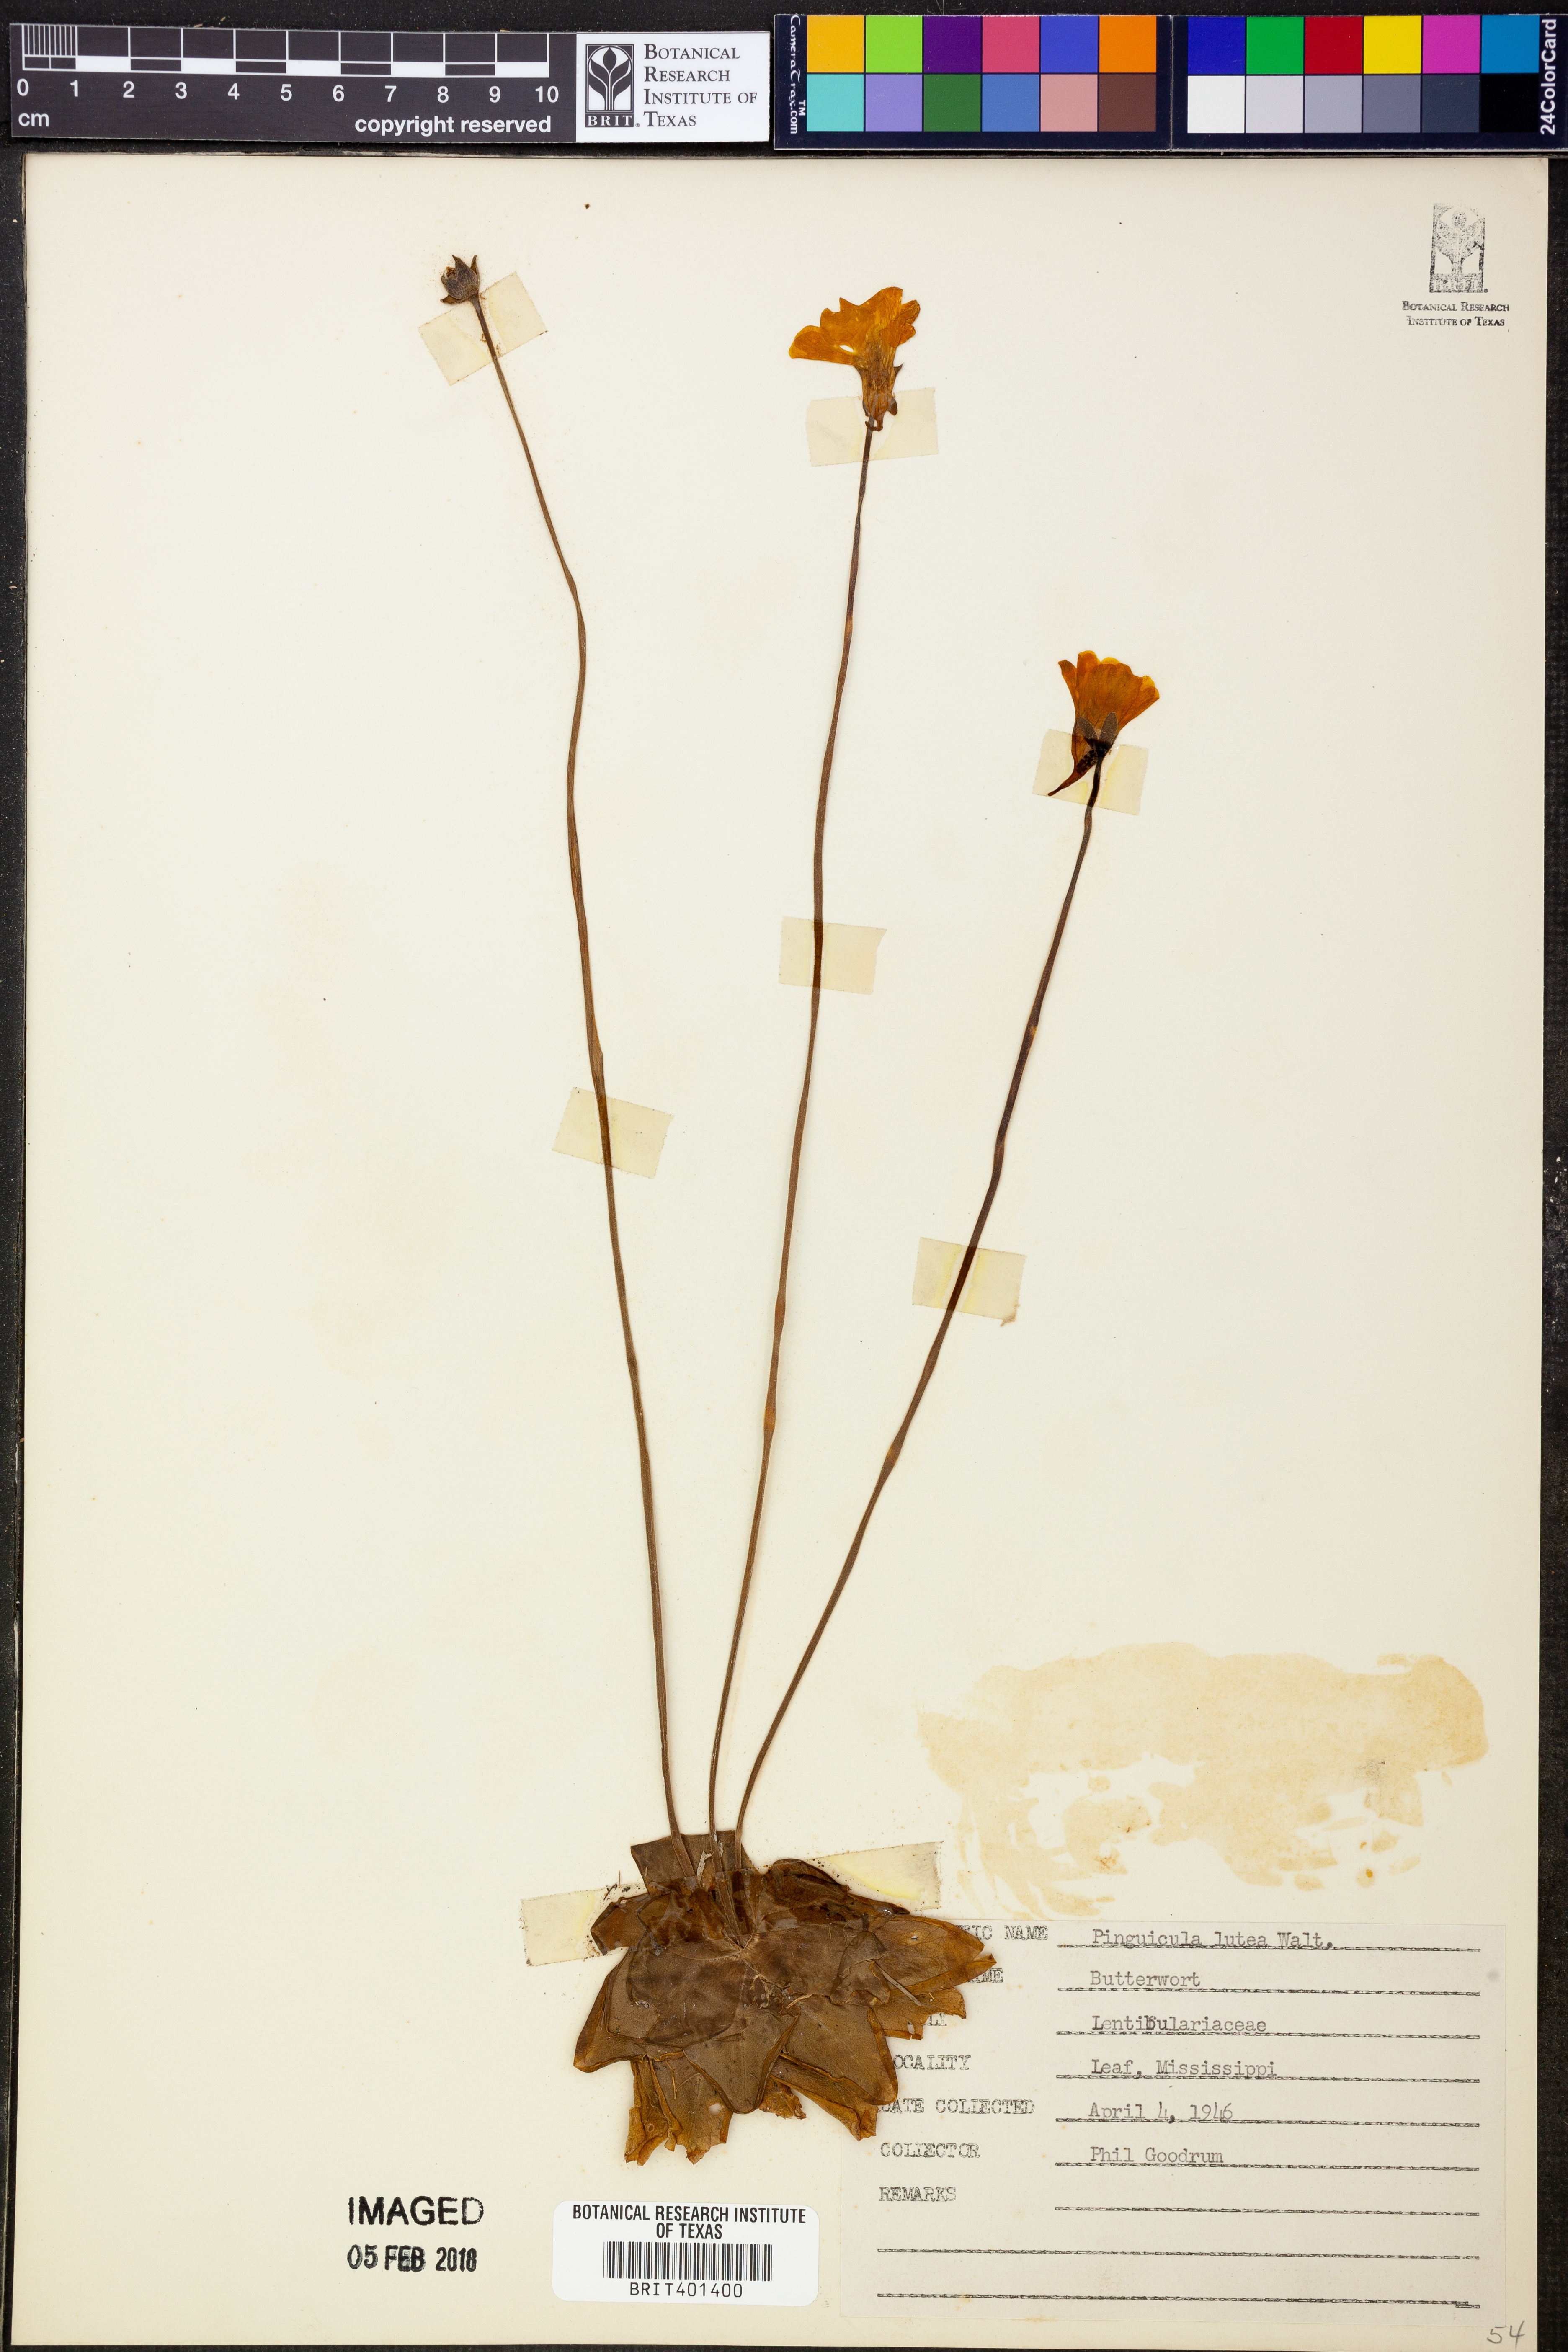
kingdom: Plantae
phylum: Tracheophyta
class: Magnoliopsida
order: Lamiales
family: Lentibulariaceae
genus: Pinguicula
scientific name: Pinguicula lutea
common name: Yellow butterwort
